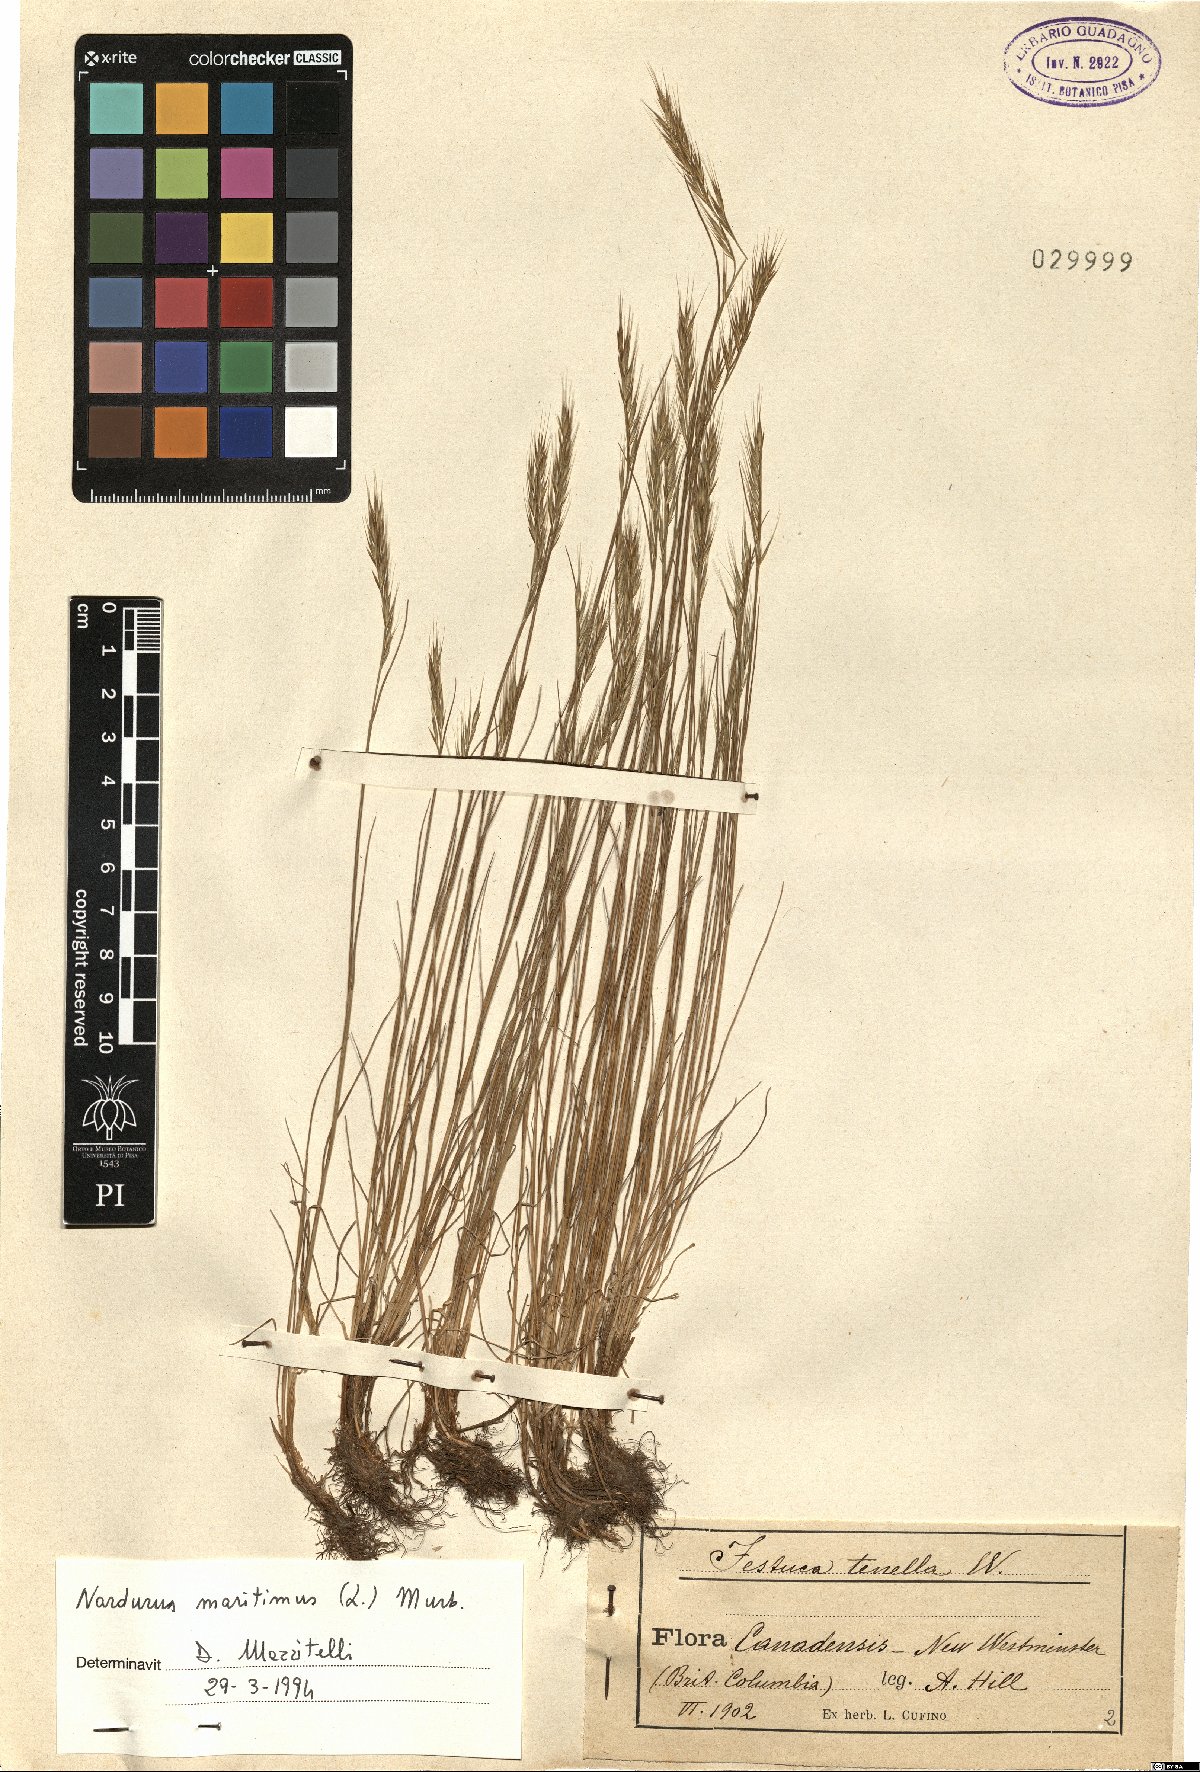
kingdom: Plantae
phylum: Tracheophyta
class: Liliopsida
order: Poales
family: Poaceae
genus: Festuca
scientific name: Festuca maritima
